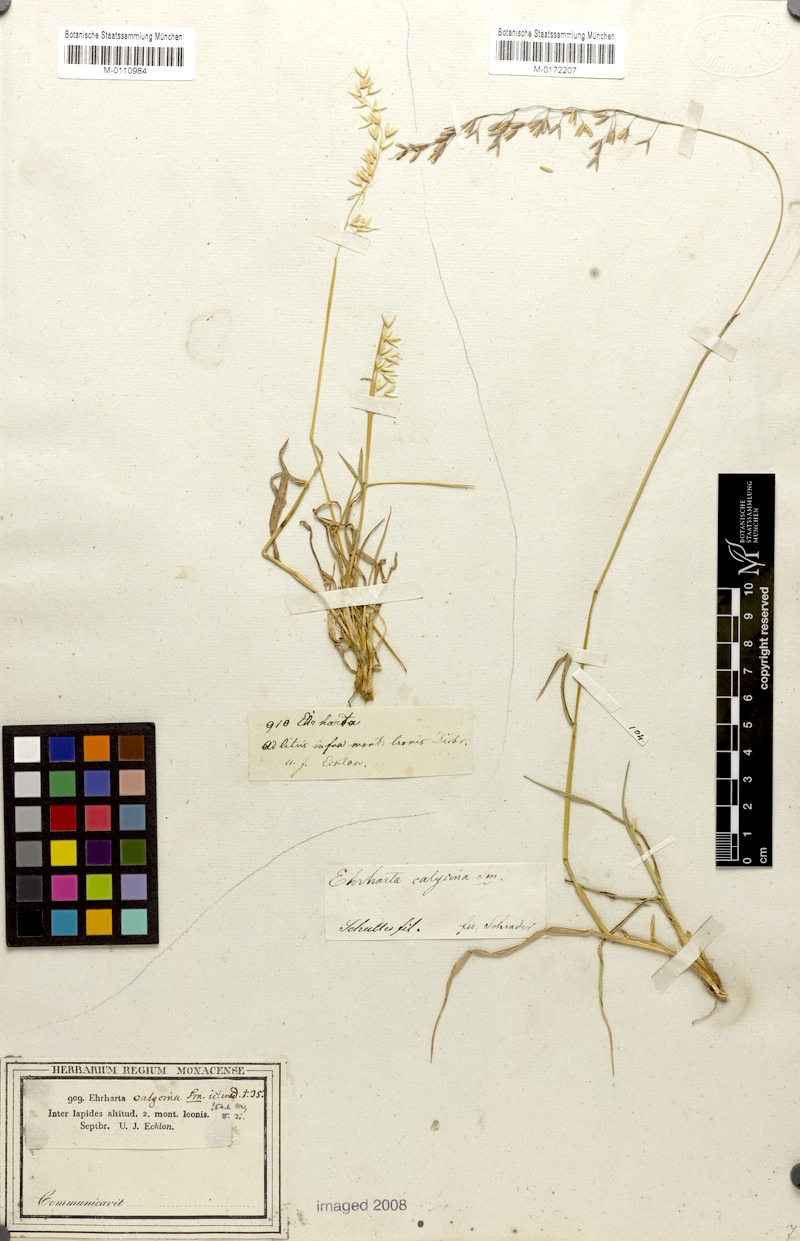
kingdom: Plantae
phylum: Tracheophyta
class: Liliopsida
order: Poales
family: Poaceae
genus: Ehrharta
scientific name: Ehrharta calycina
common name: Perennial veldtgrass
